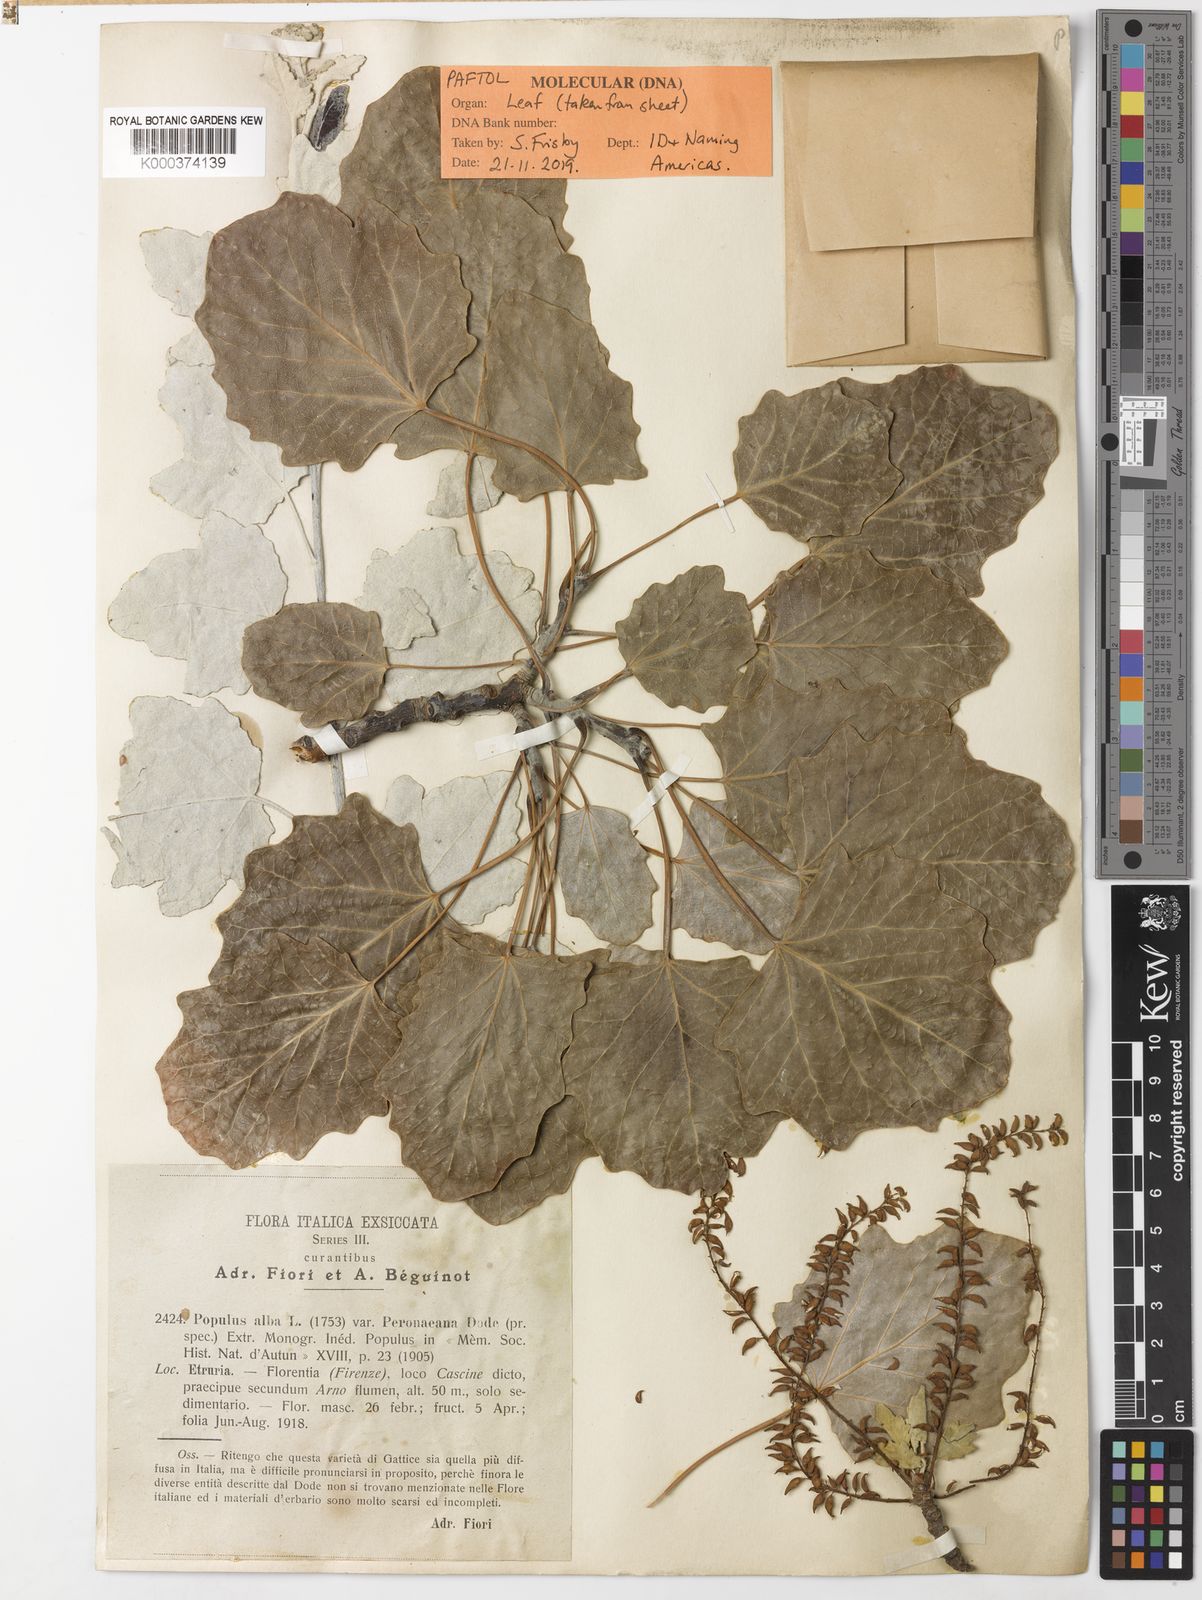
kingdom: Plantae
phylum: Tracheophyta
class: Magnoliopsida
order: Malpighiales
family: Salicaceae
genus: Populus
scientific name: Populus alba
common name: White poplar
